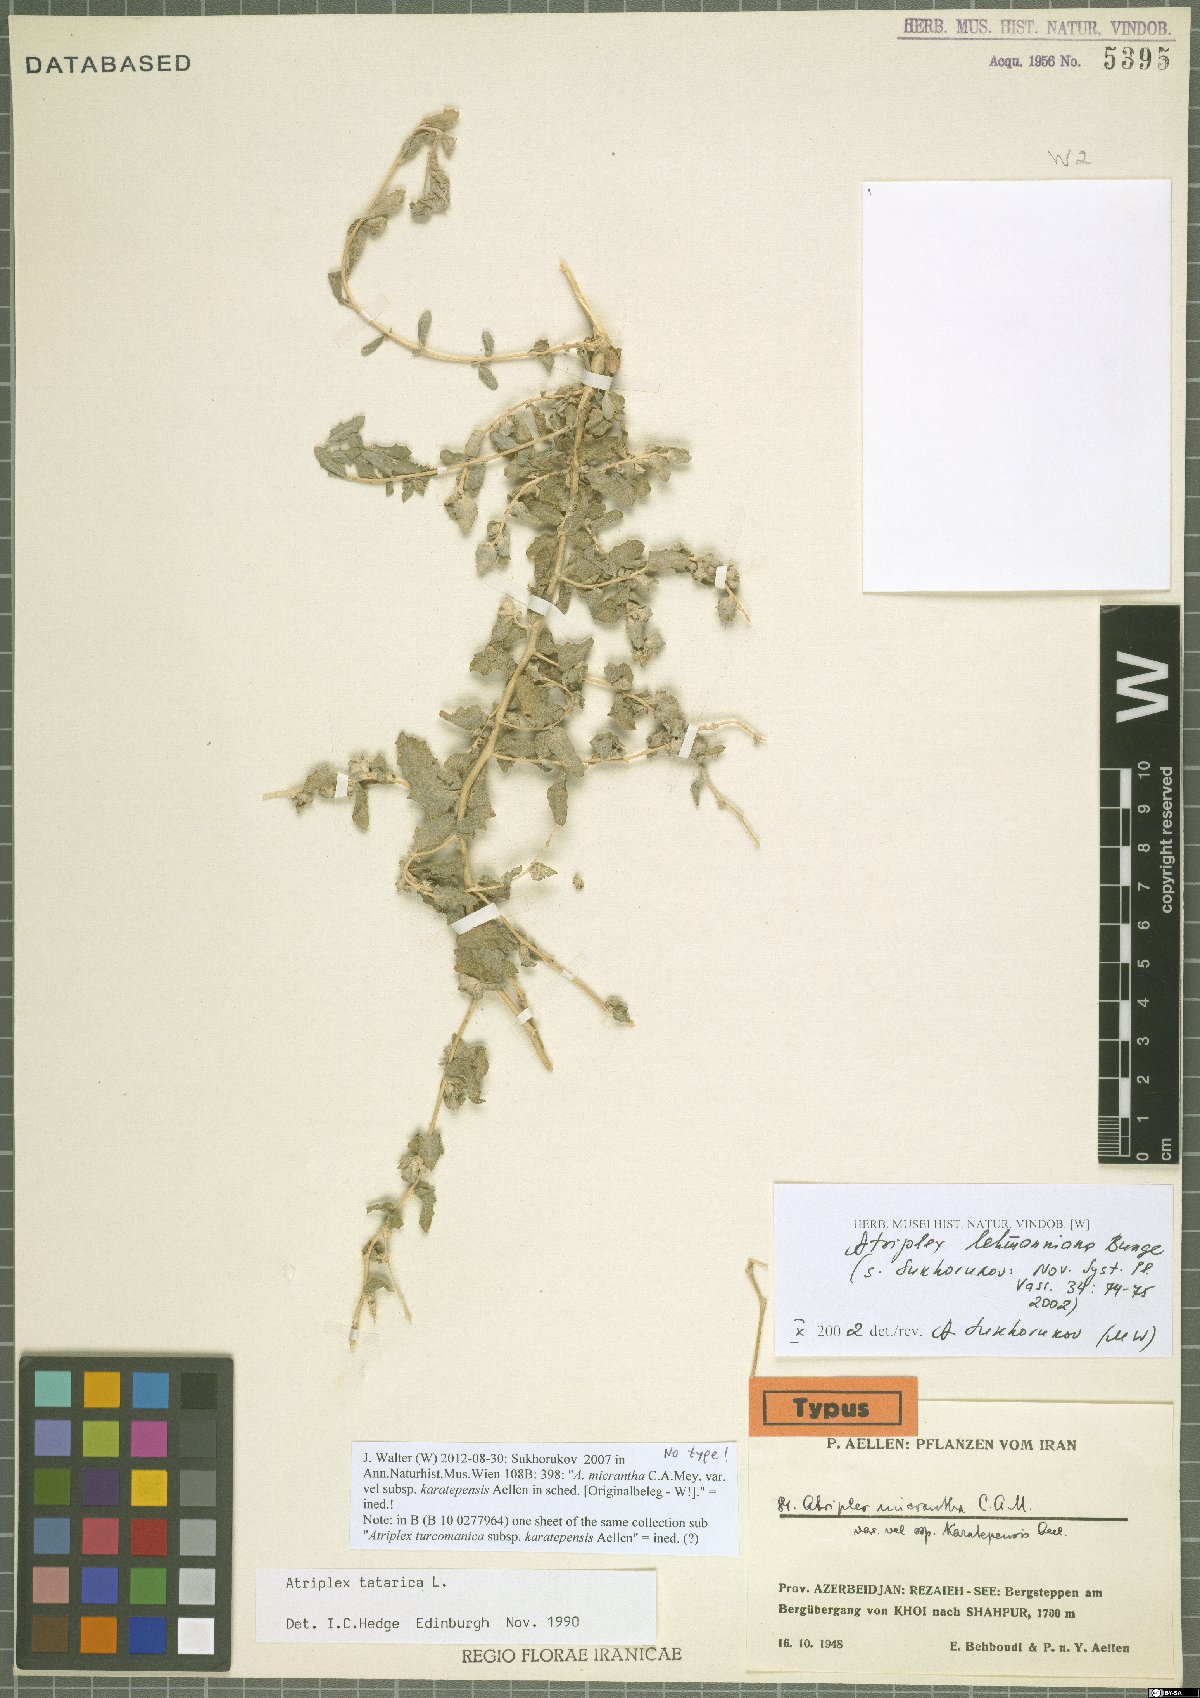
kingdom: Plantae
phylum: Tracheophyta
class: Magnoliopsida
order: Caryophyllales
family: Amaranthaceae
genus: Atriplex
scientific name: Atriplex tatarica
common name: Tatarian orache
